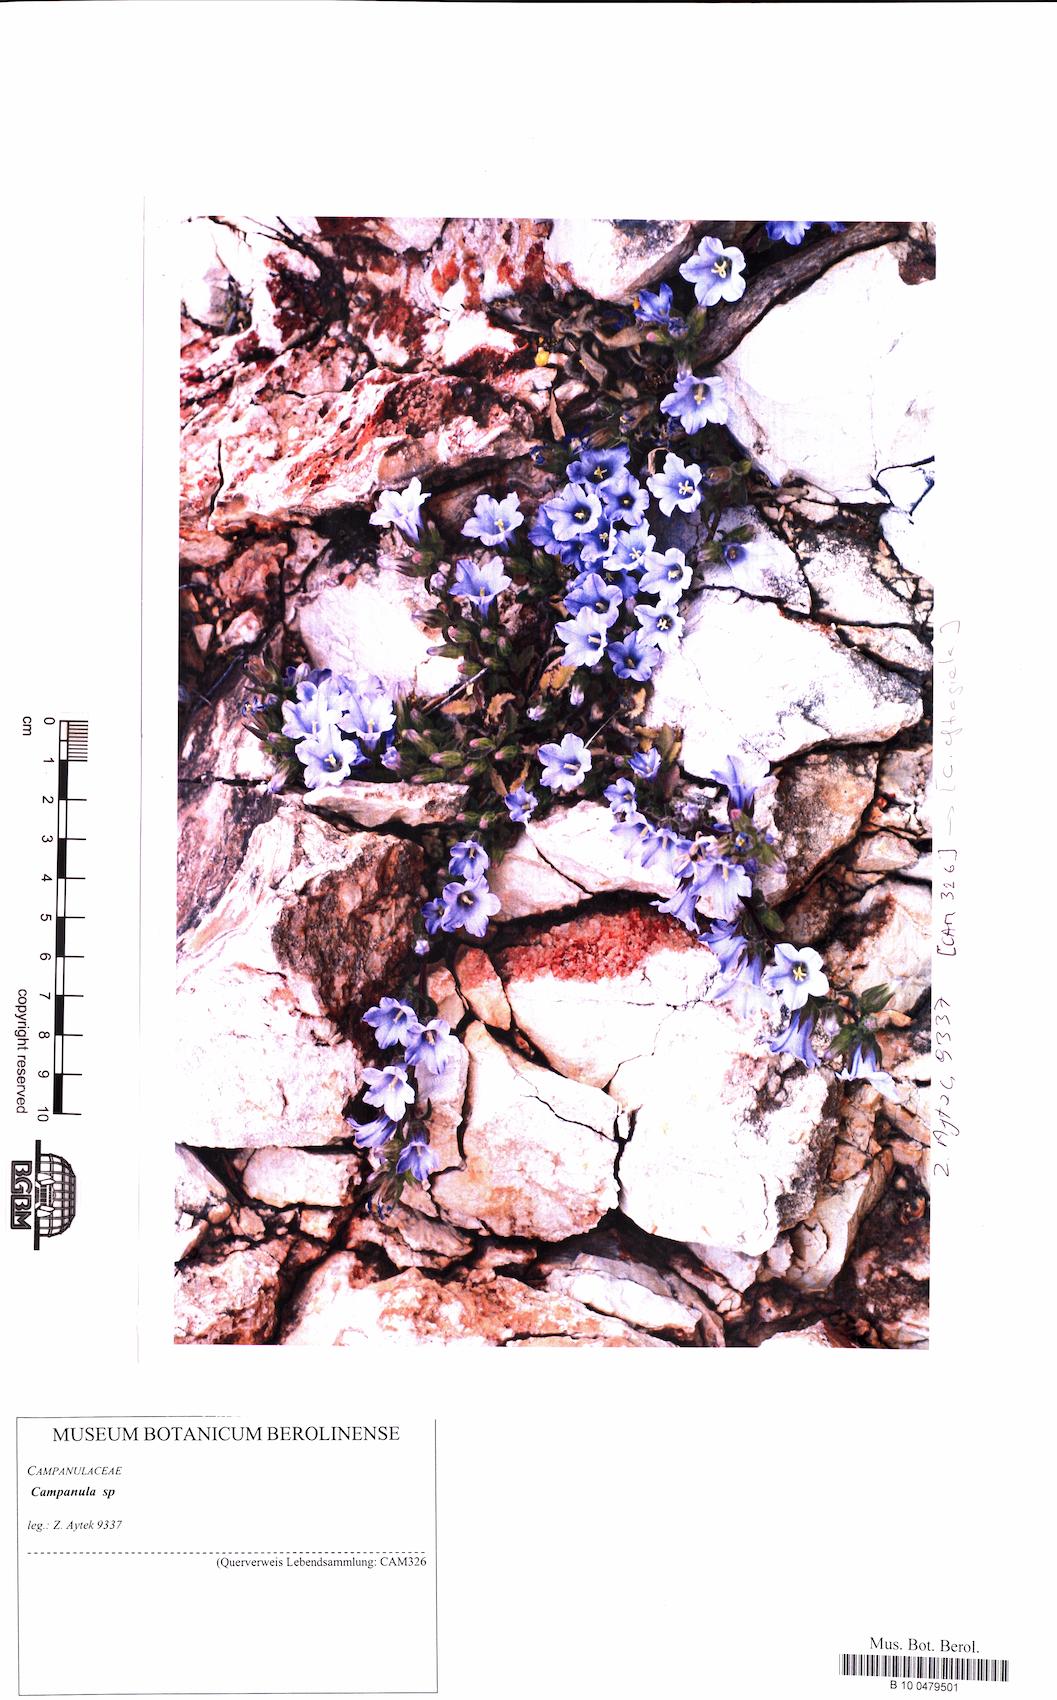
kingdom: Plantae
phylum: Tracheophyta
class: Magnoliopsida
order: Asterales
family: Campanulaceae
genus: Campanula
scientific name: Campanula
